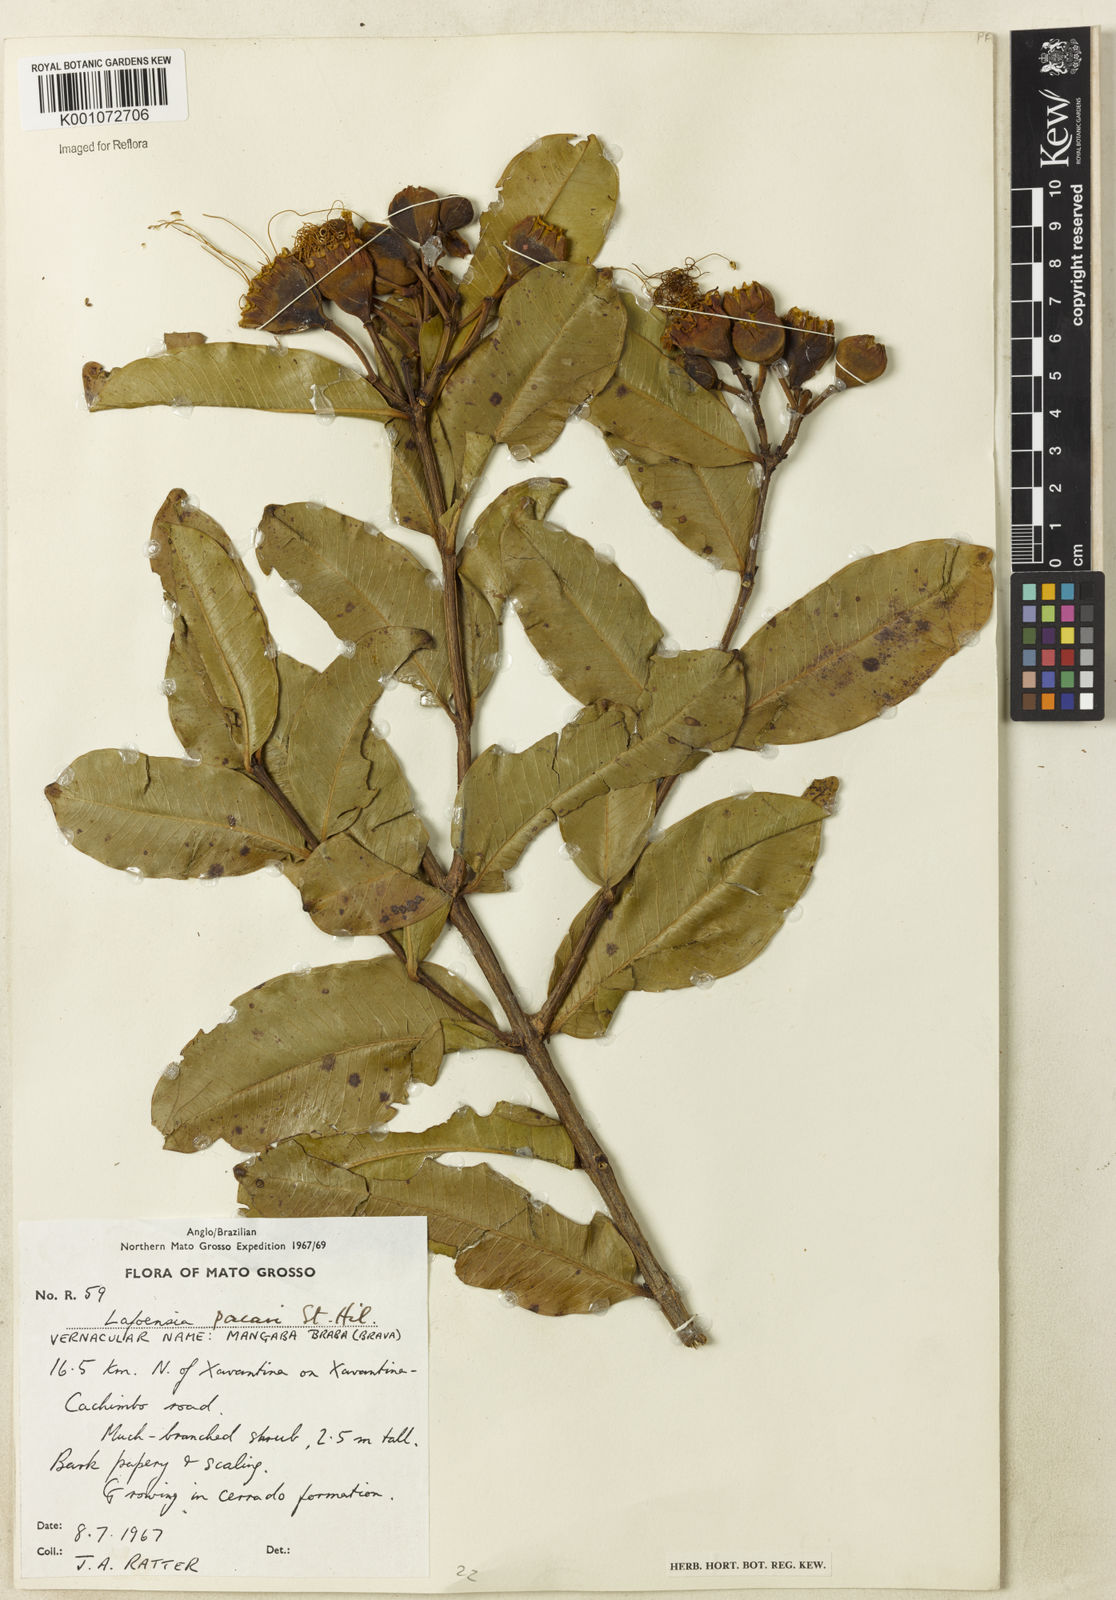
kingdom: Plantae
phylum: Tracheophyta
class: Magnoliopsida
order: Myrtales
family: Lythraceae
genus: Lafoensia
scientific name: Lafoensia pacari
